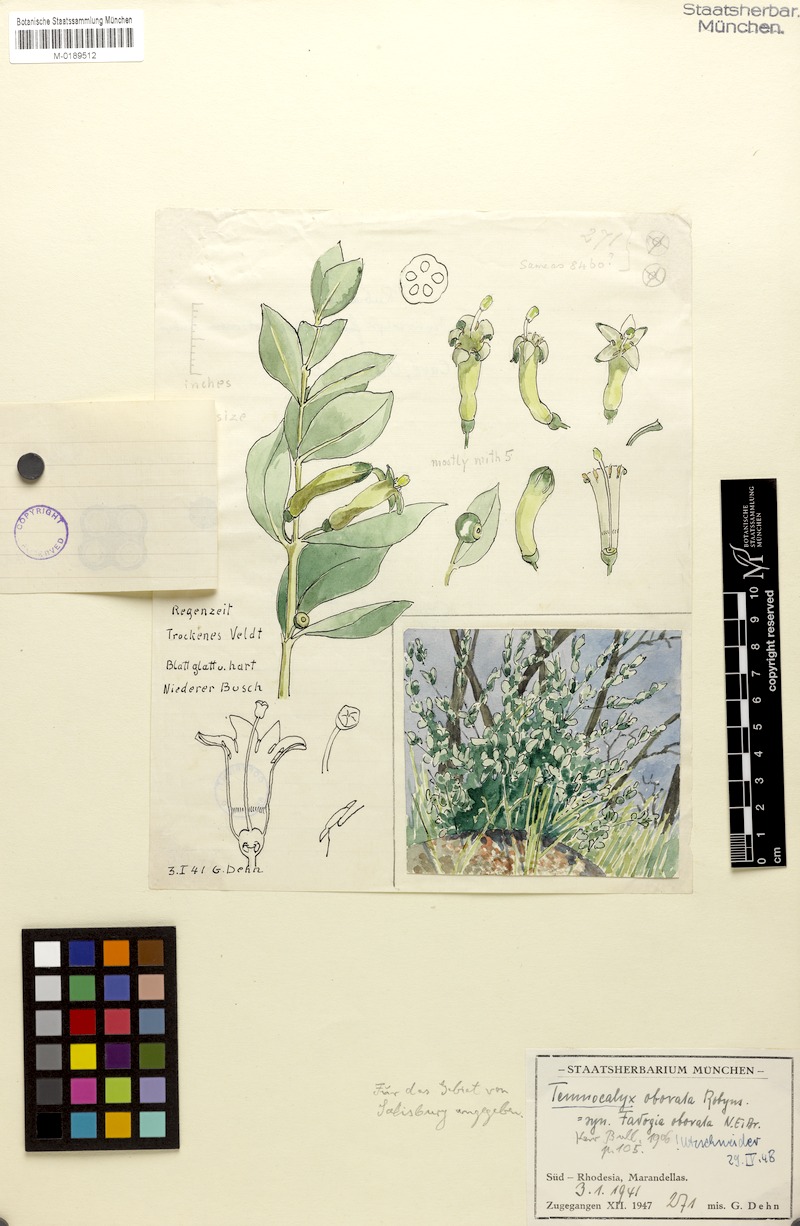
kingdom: Plantae
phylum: Tracheophyta
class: Magnoliopsida
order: Gentianales
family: Rubiaceae
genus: Fadogia
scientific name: Fadogia ancylantha
